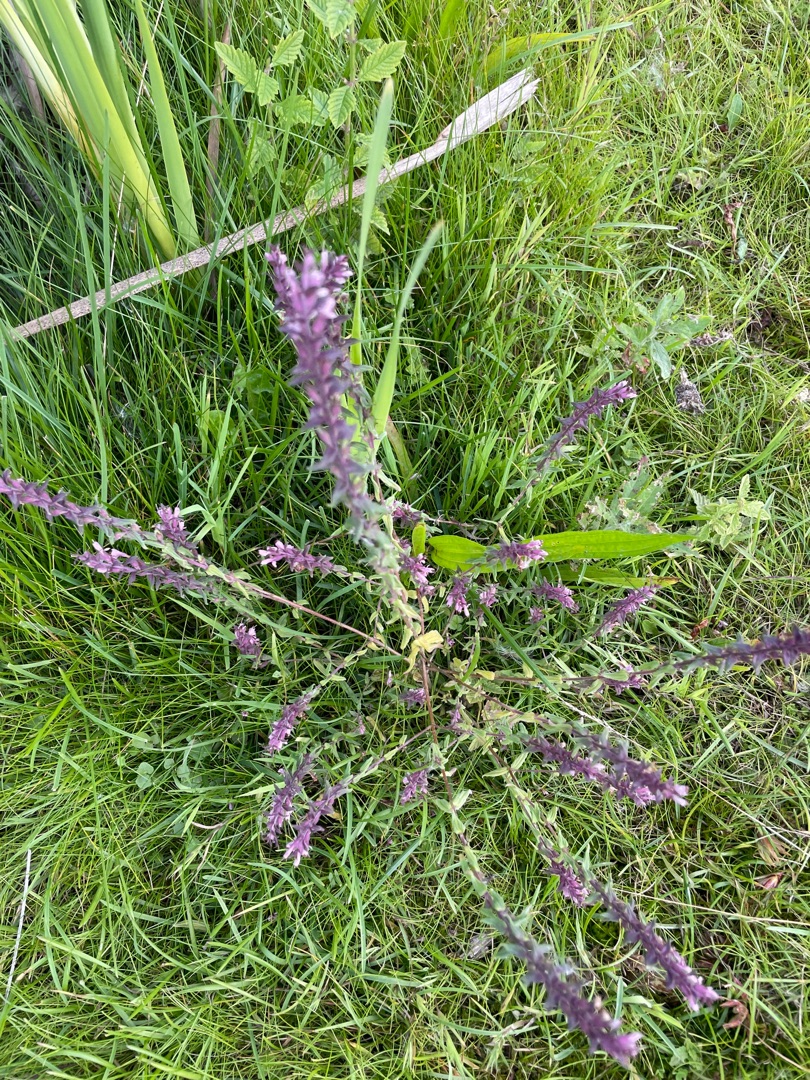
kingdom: Plantae
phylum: Tracheophyta
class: Magnoliopsida
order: Lamiales
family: Orobanchaceae
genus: Odontites
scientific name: Odontites vulgaris
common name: Høst-rødtop
